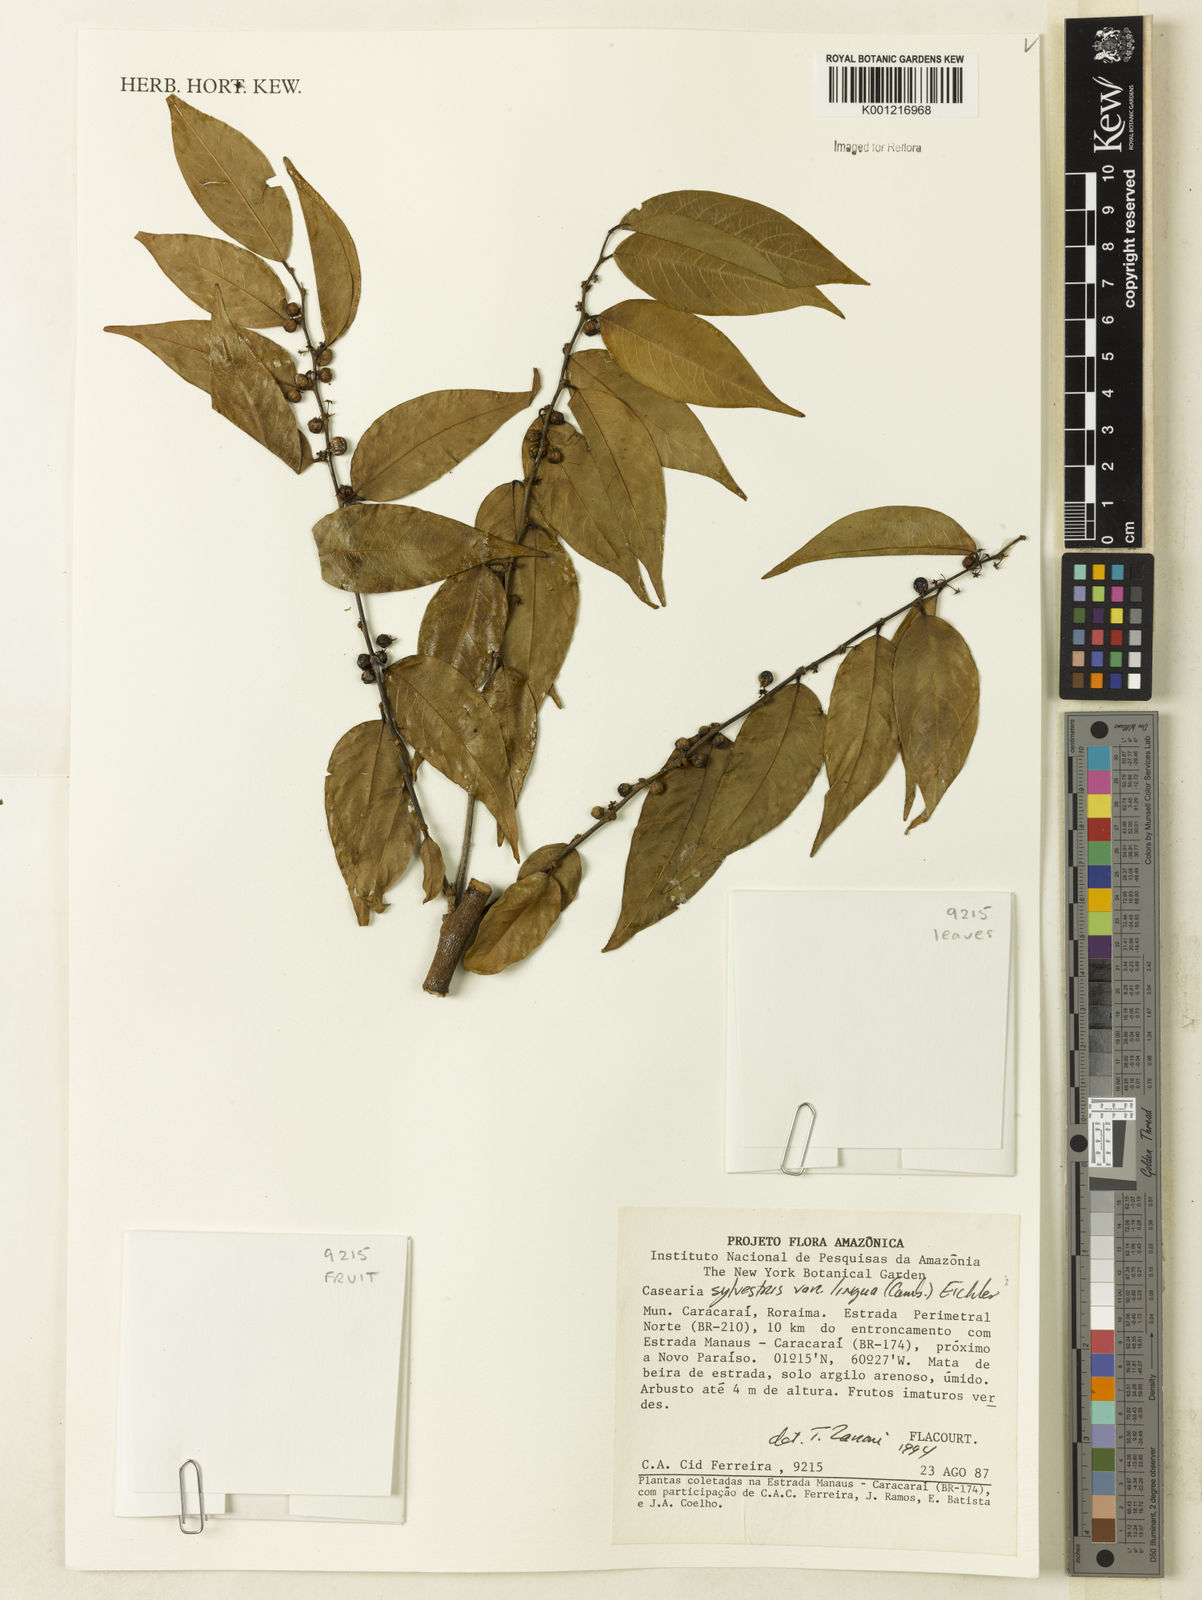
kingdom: Plantae
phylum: Tracheophyta
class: Magnoliopsida
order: Malpighiales
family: Salicaceae
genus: Casearia
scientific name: Casearia sylvestris
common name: Wild sage
